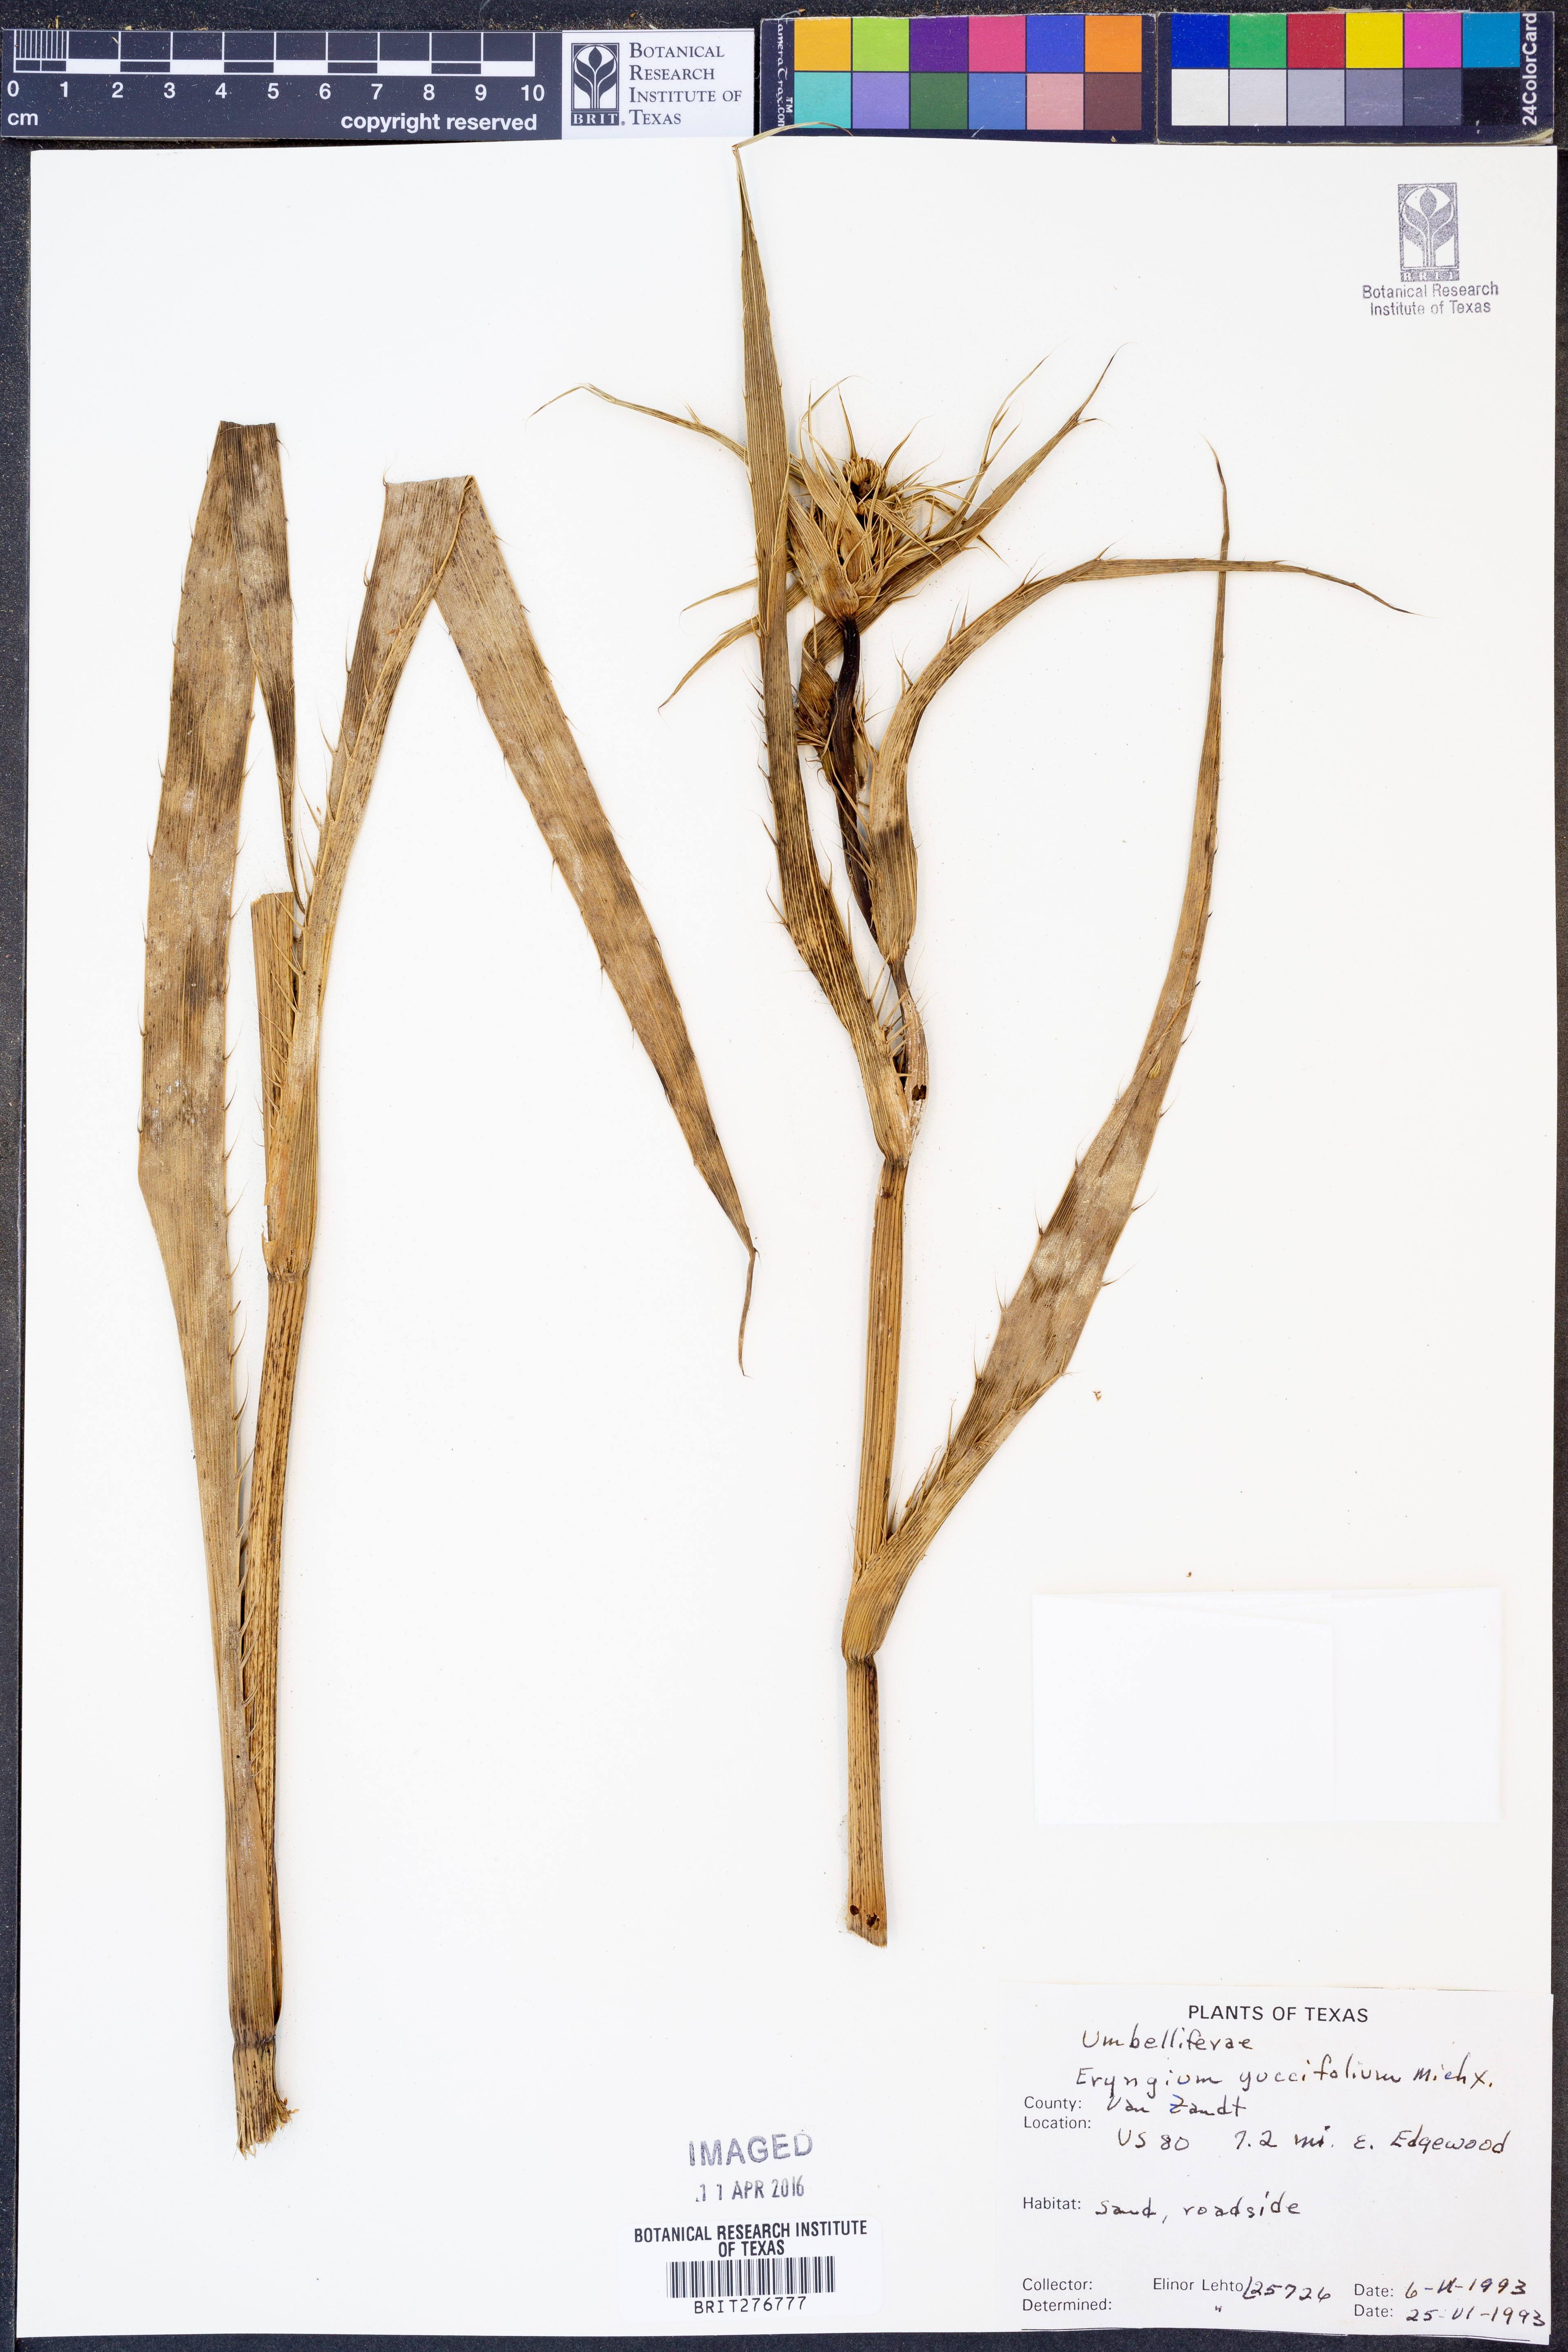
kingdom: Plantae
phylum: Tracheophyta
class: Magnoliopsida
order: Apiales
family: Apiaceae
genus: Eryngium
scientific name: Eryngium yuccifolium
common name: Button eryngo
